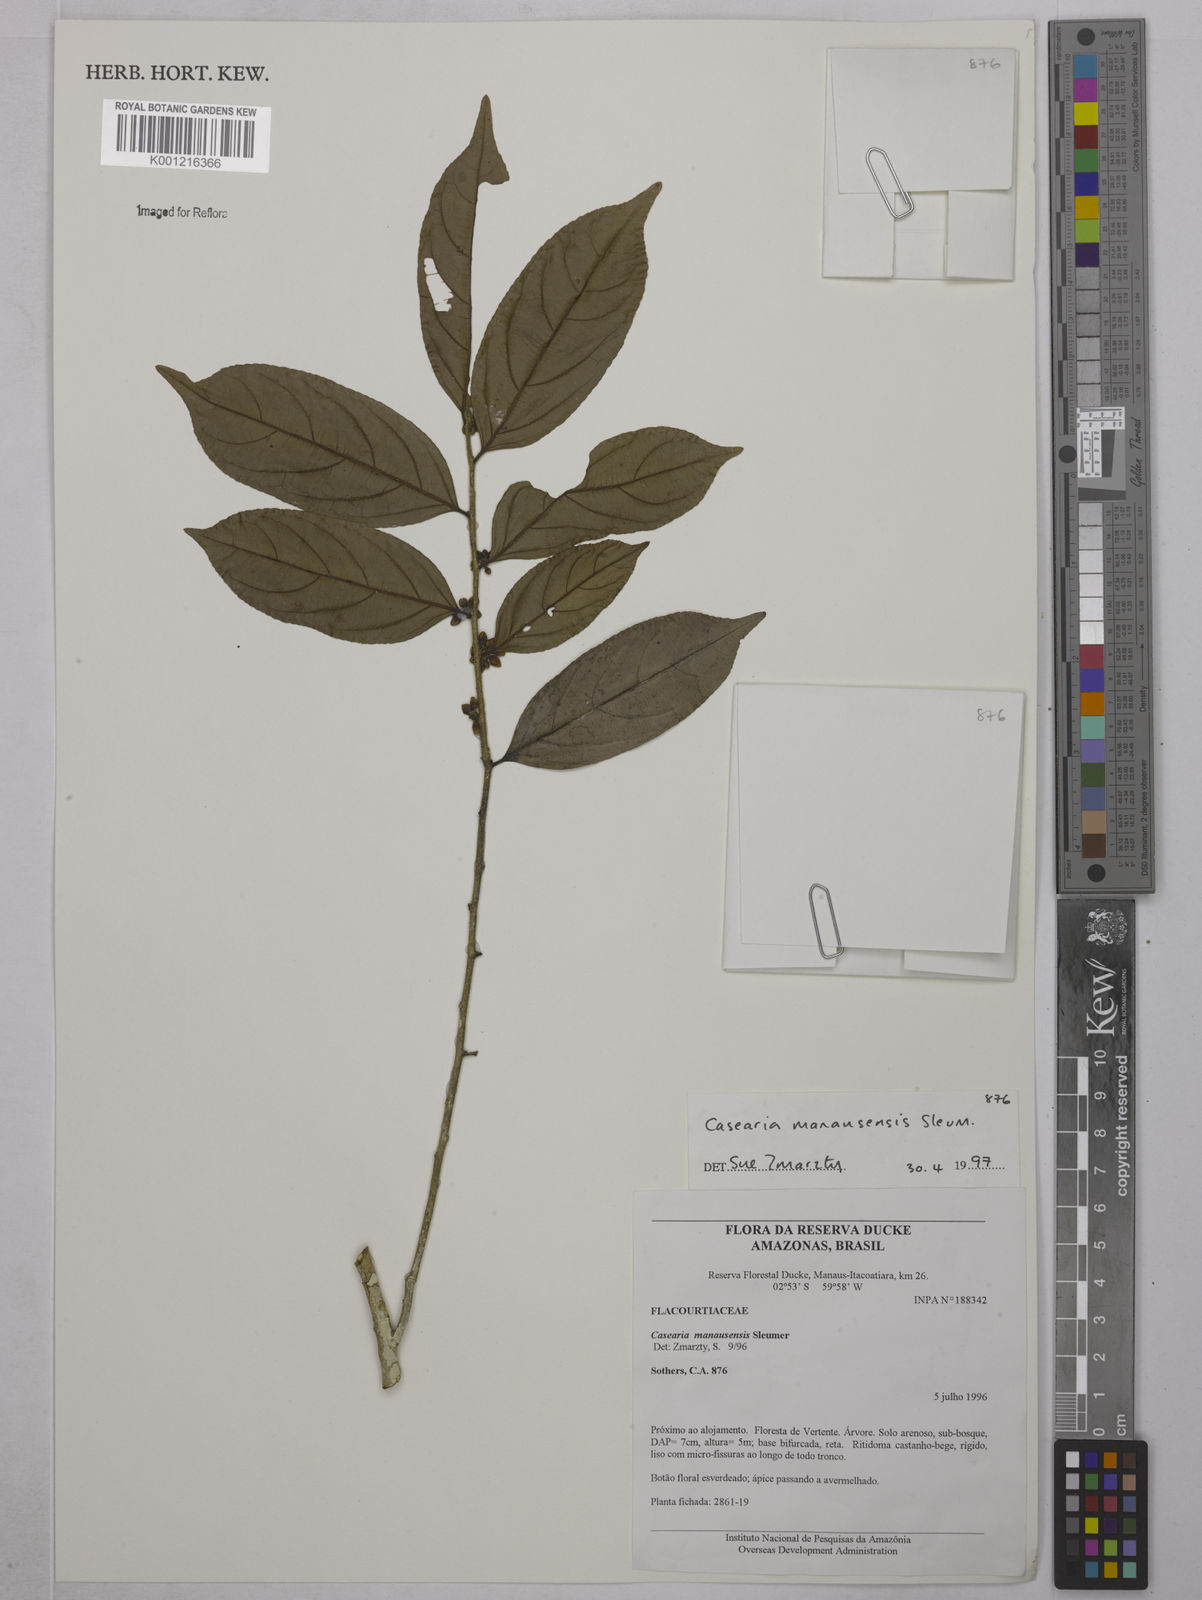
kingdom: Plantae
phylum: Tracheophyta
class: Magnoliopsida
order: Malpighiales
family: Salicaceae
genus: Casearia
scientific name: Casearia manausensis
